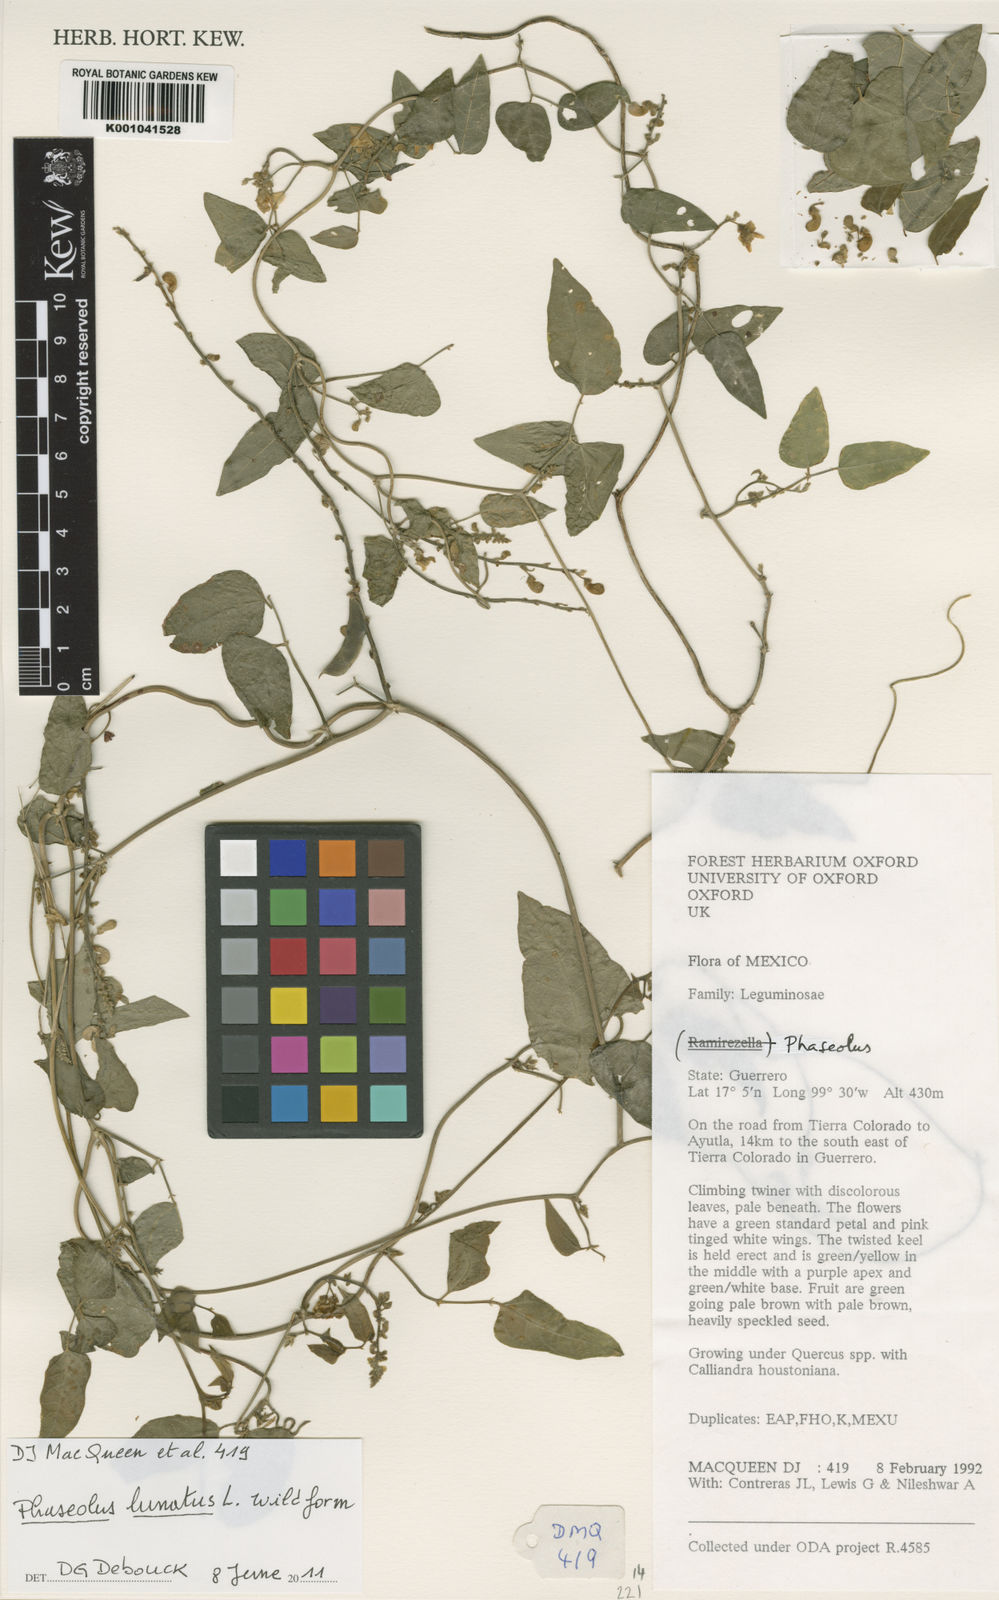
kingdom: Plantae
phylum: Tracheophyta
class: Magnoliopsida
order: Fabales
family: Fabaceae
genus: Phaseolus
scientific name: Phaseolus lunatus
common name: Sieva bean
